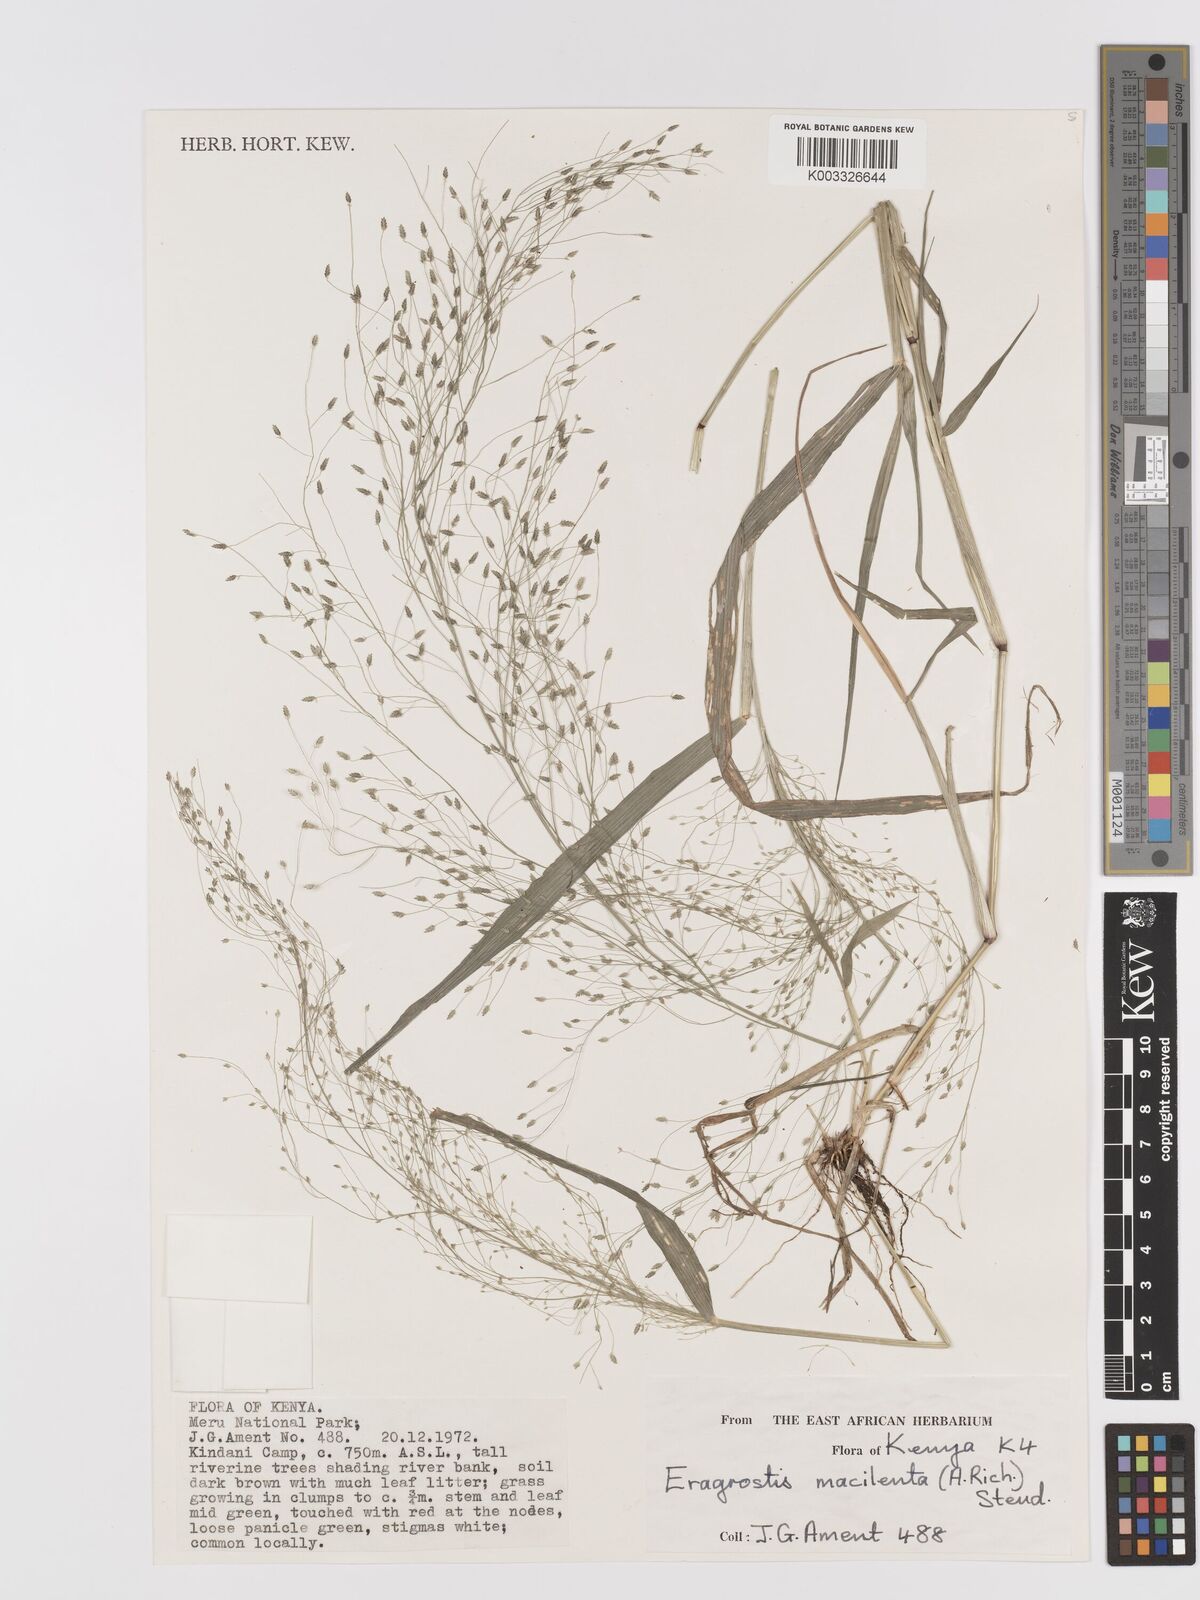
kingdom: Plantae
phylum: Tracheophyta
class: Liliopsida
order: Poales
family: Poaceae
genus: Eragrostis
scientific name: Eragrostis macilenta
